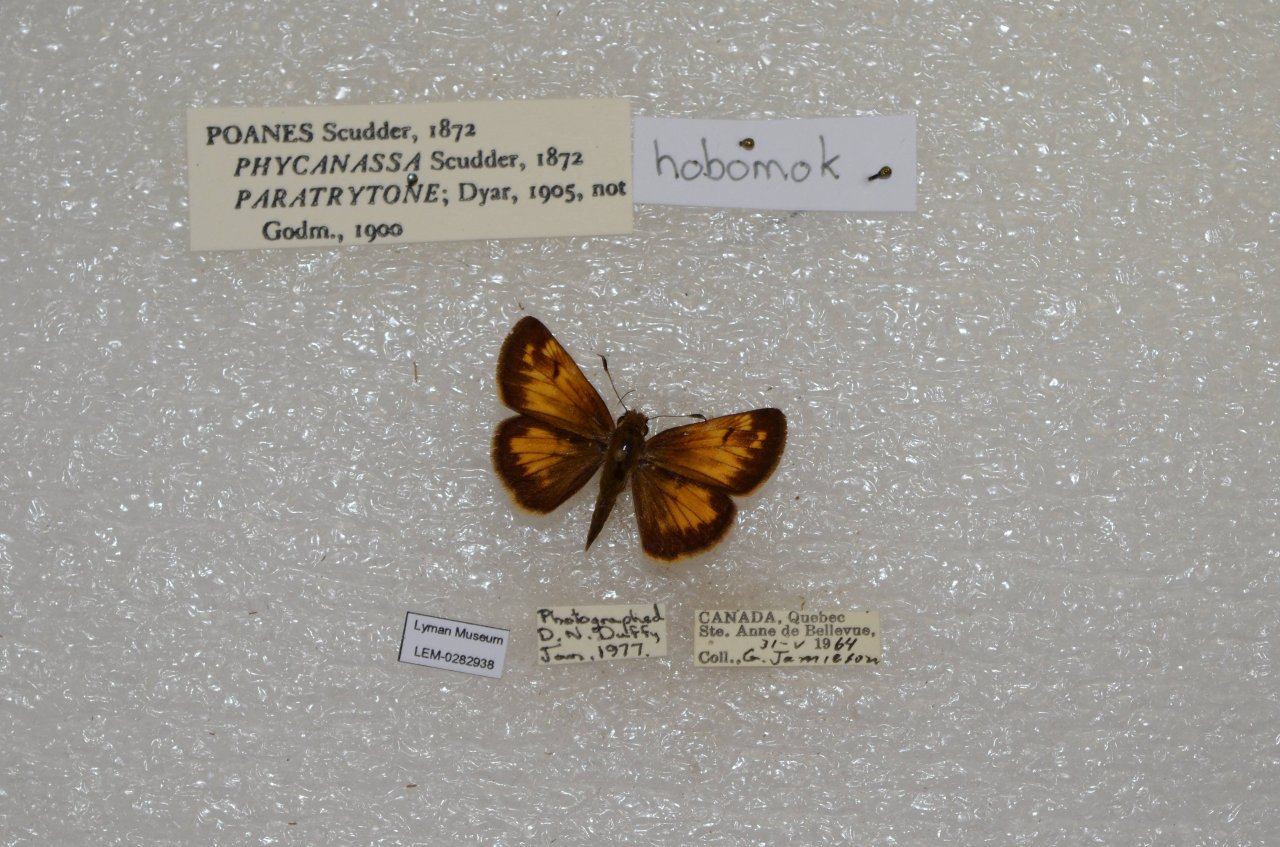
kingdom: Animalia
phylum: Arthropoda
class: Insecta
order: Lepidoptera
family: Hesperiidae
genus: Lon
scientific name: Lon hobomok
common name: Hobomok Skipper
